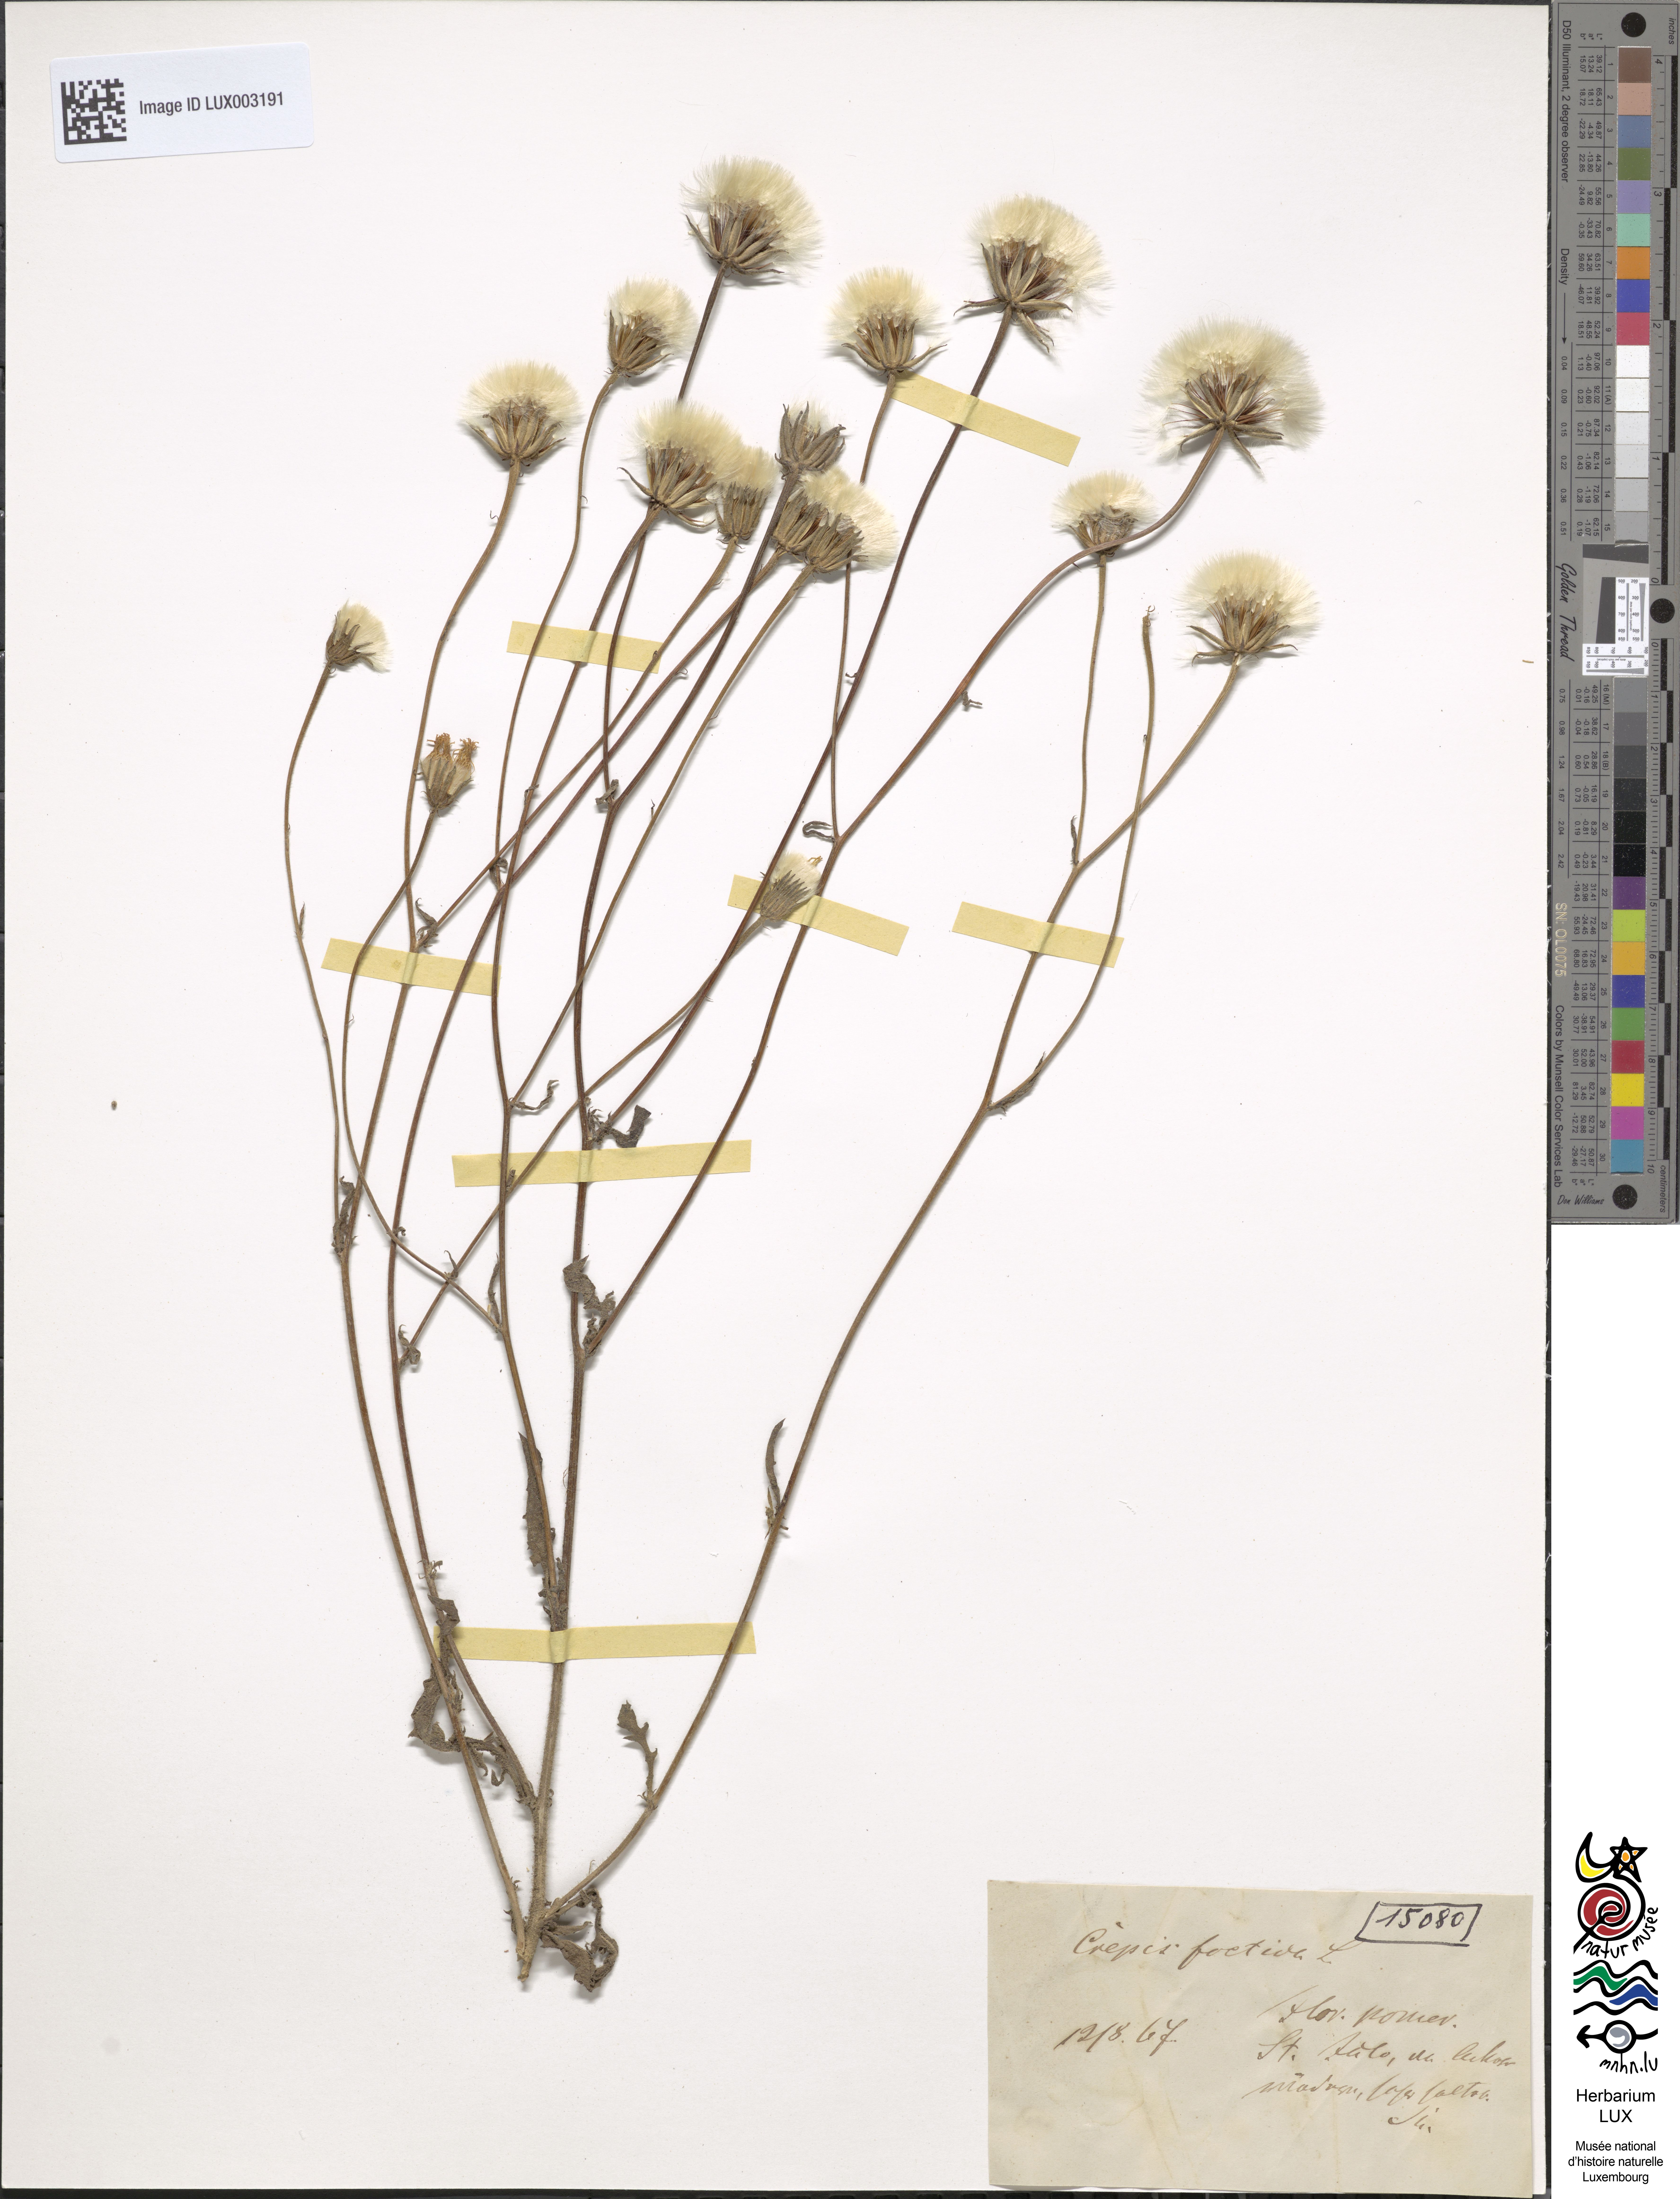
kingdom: Plantae
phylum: Tracheophyta
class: Magnoliopsida
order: Asterales
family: Asteraceae
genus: Crepis
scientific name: Crepis foetida
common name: Stinking hawk's-beard
